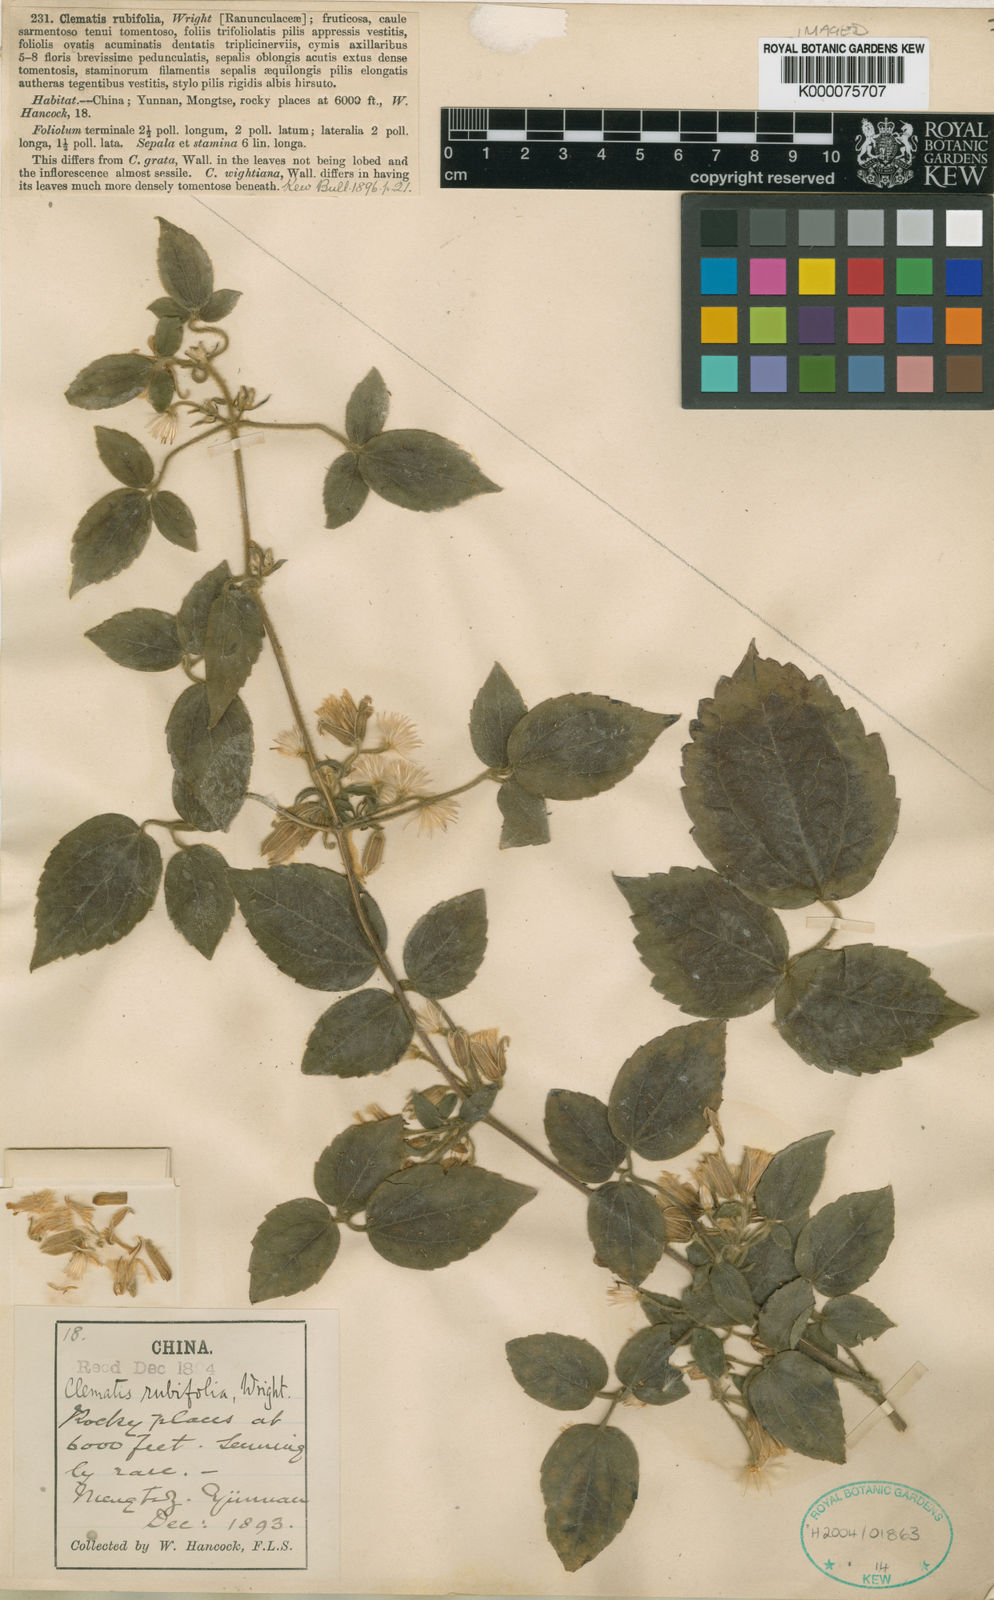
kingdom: Plantae
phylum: Tracheophyta
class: Magnoliopsida
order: Ranunculales
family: Ranunculaceae
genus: Clematis
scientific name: Clematis rubifolia
